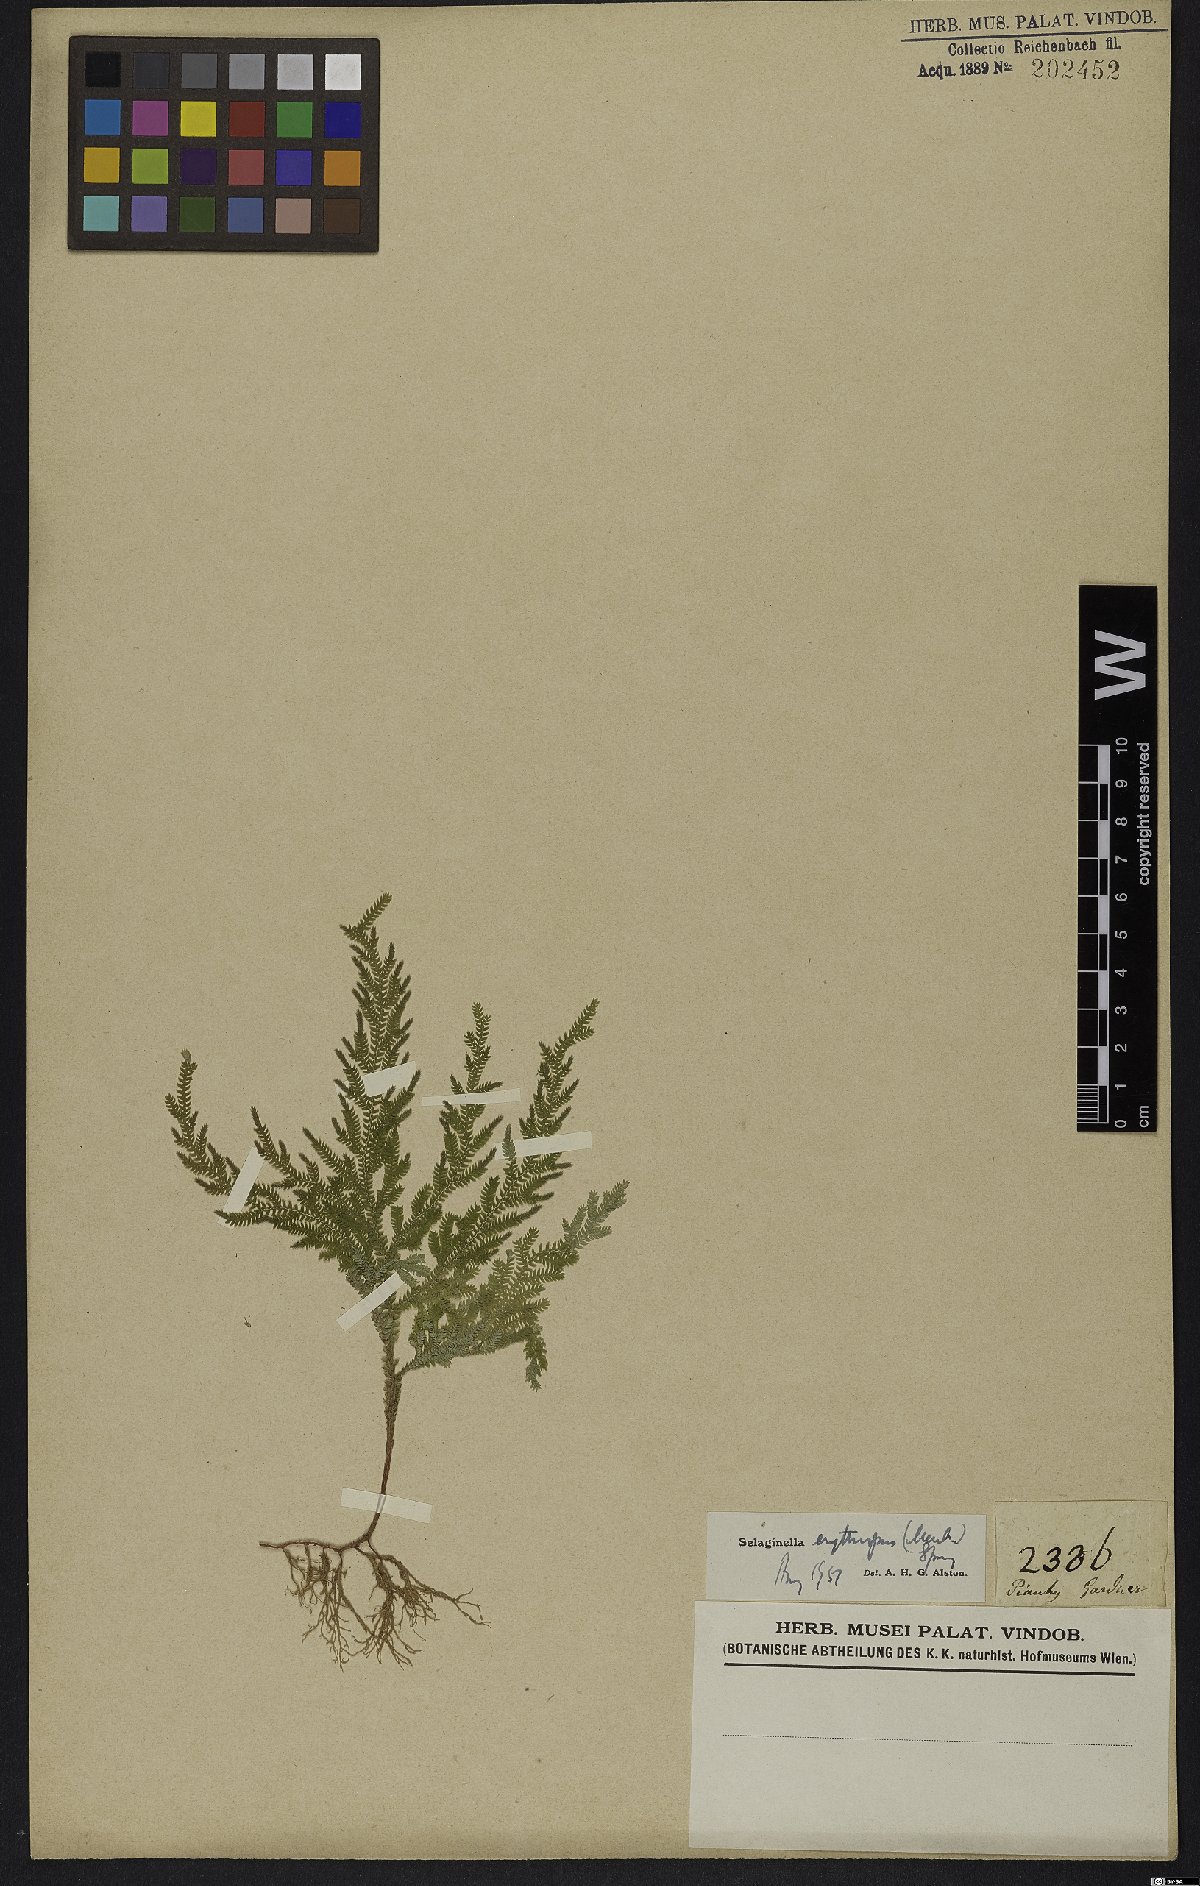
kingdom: Plantae
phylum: Tracheophyta
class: Lycopodiopsida
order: Selaginellales
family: Selaginellaceae
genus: Selaginella
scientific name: Selaginella erythropus
